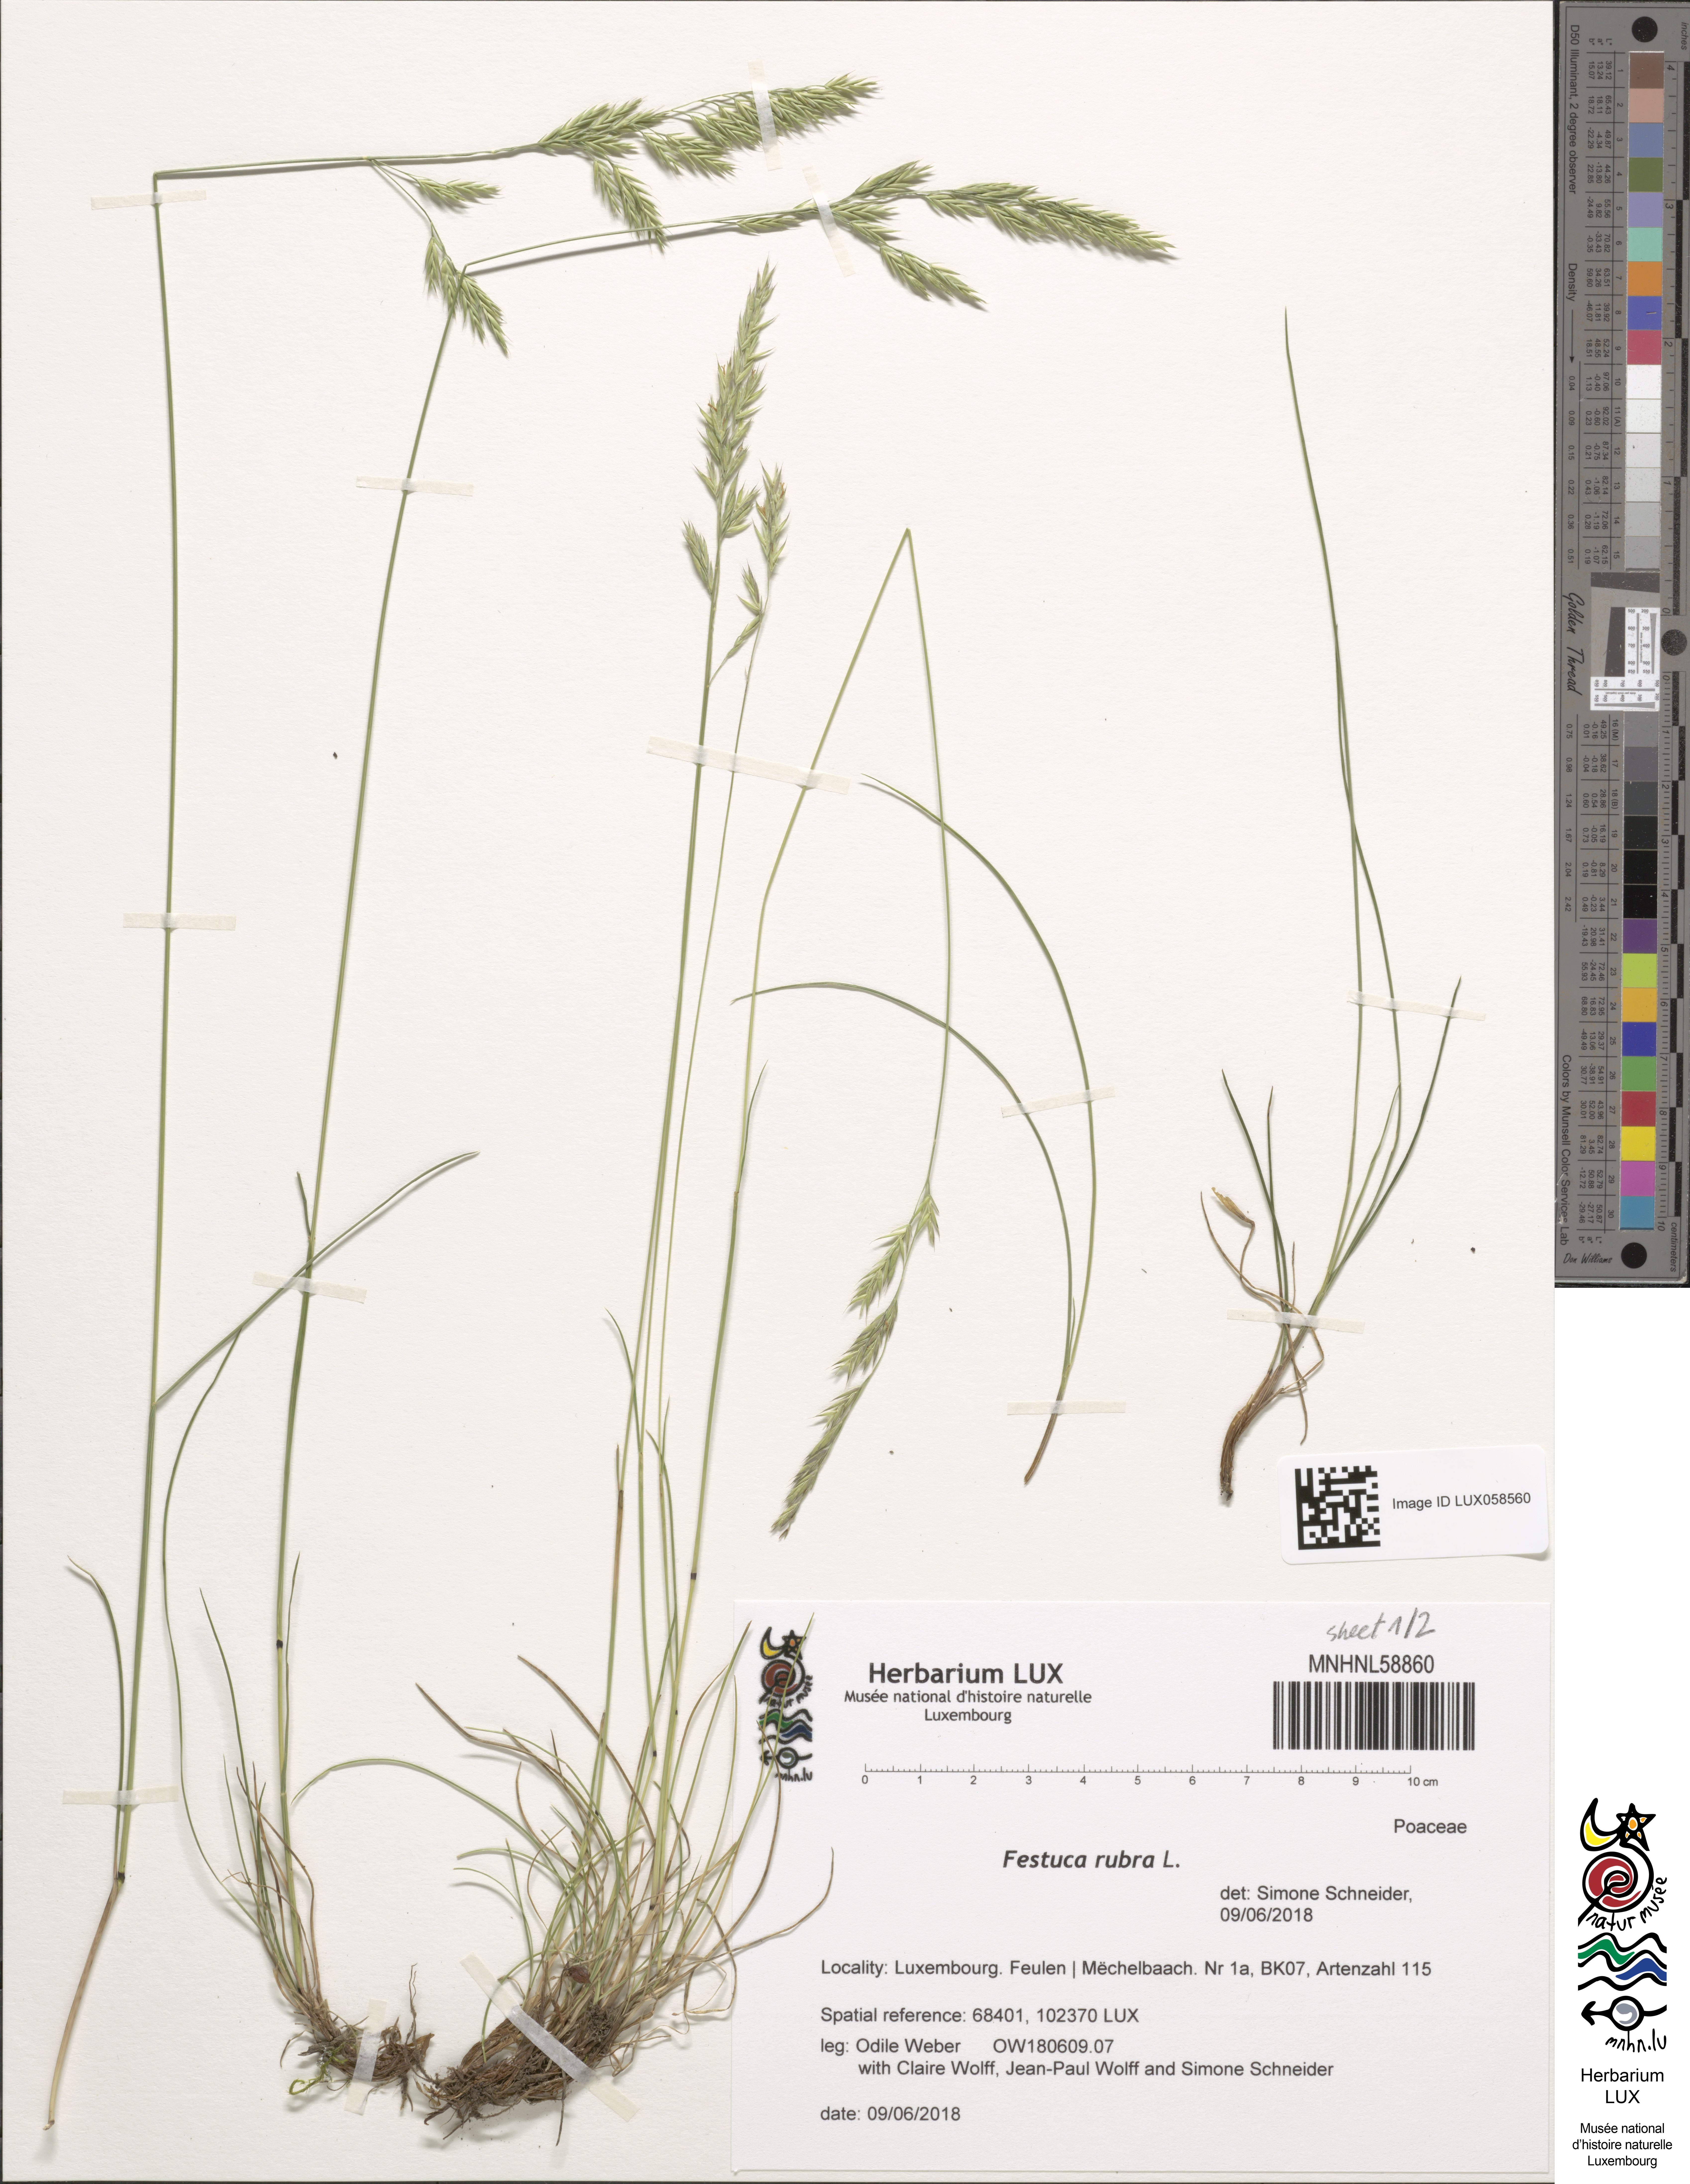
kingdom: Plantae
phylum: Tracheophyta
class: Liliopsida
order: Poales
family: Poaceae
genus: Festuca
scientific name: Festuca rubra
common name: Red fescue
